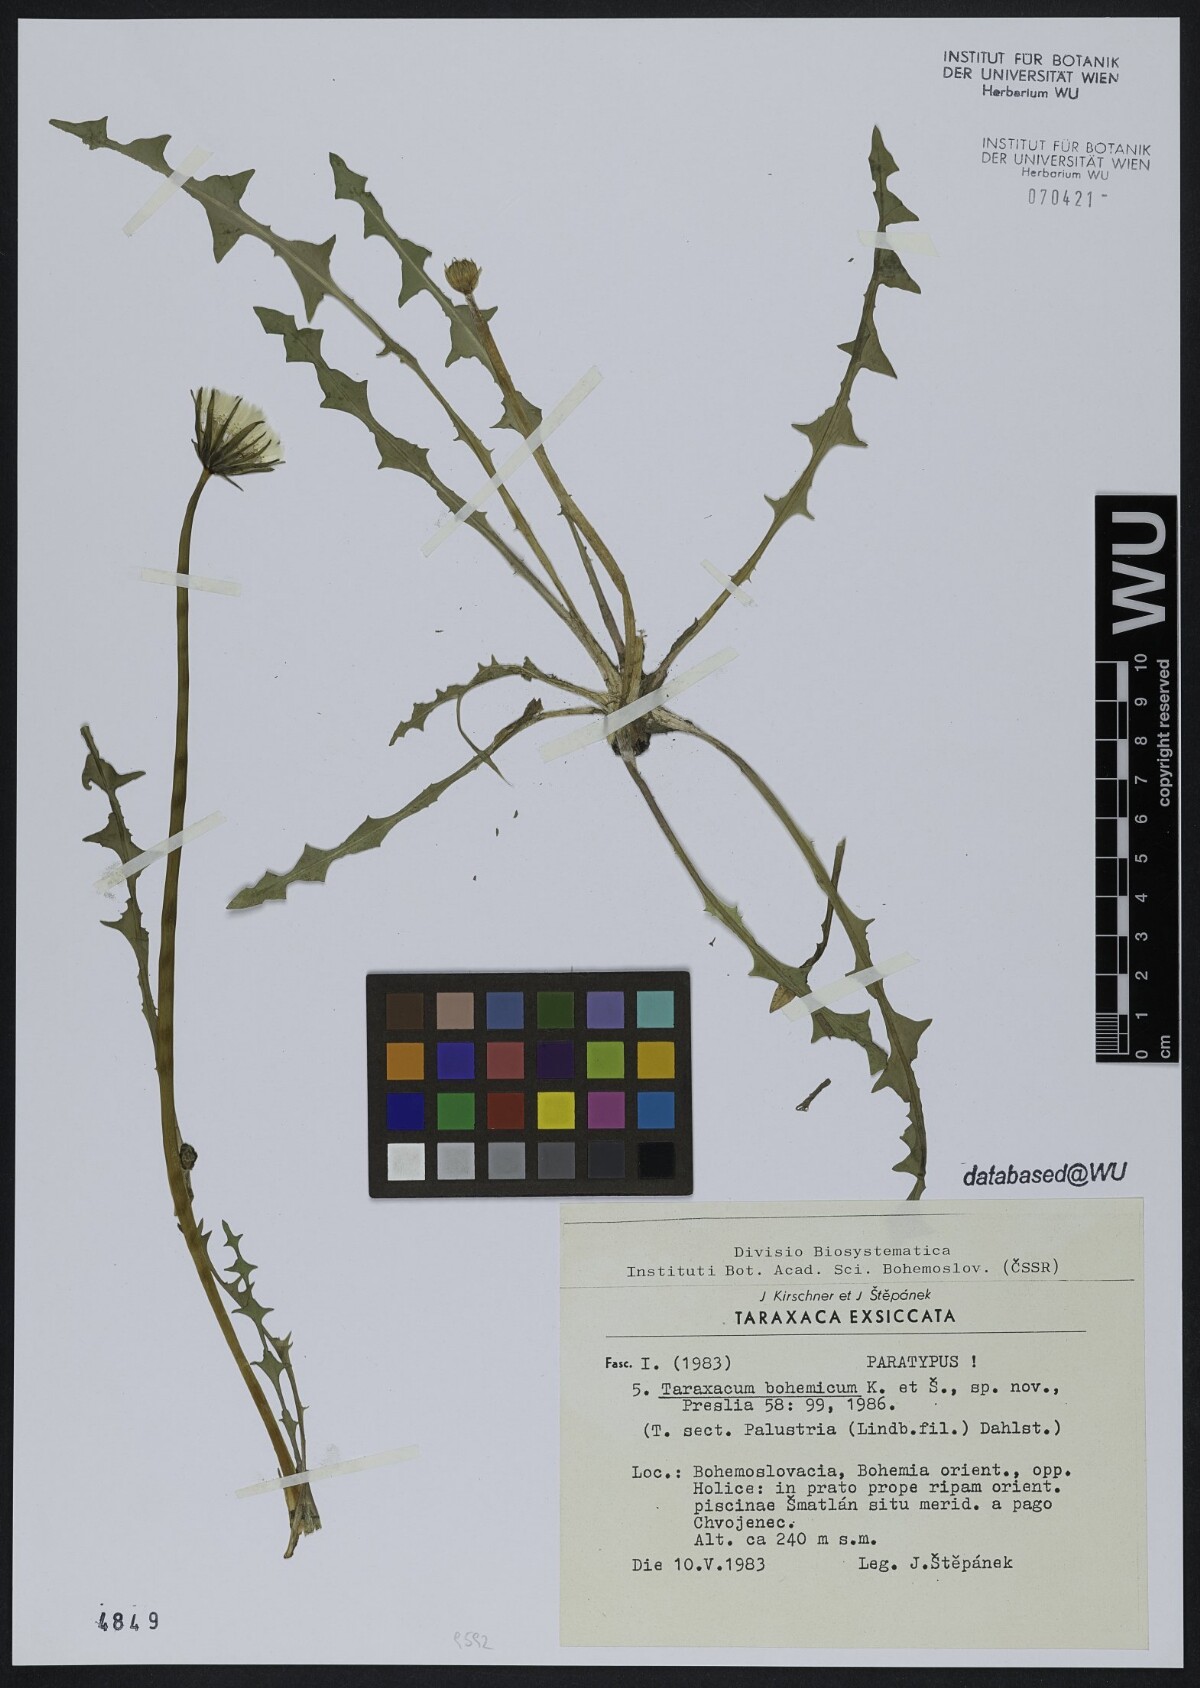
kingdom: Plantae
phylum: Tracheophyta
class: Magnoliopsida
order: Asterales
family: Asteraceae
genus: Taraxacum
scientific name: Taraxacum bohemicum
